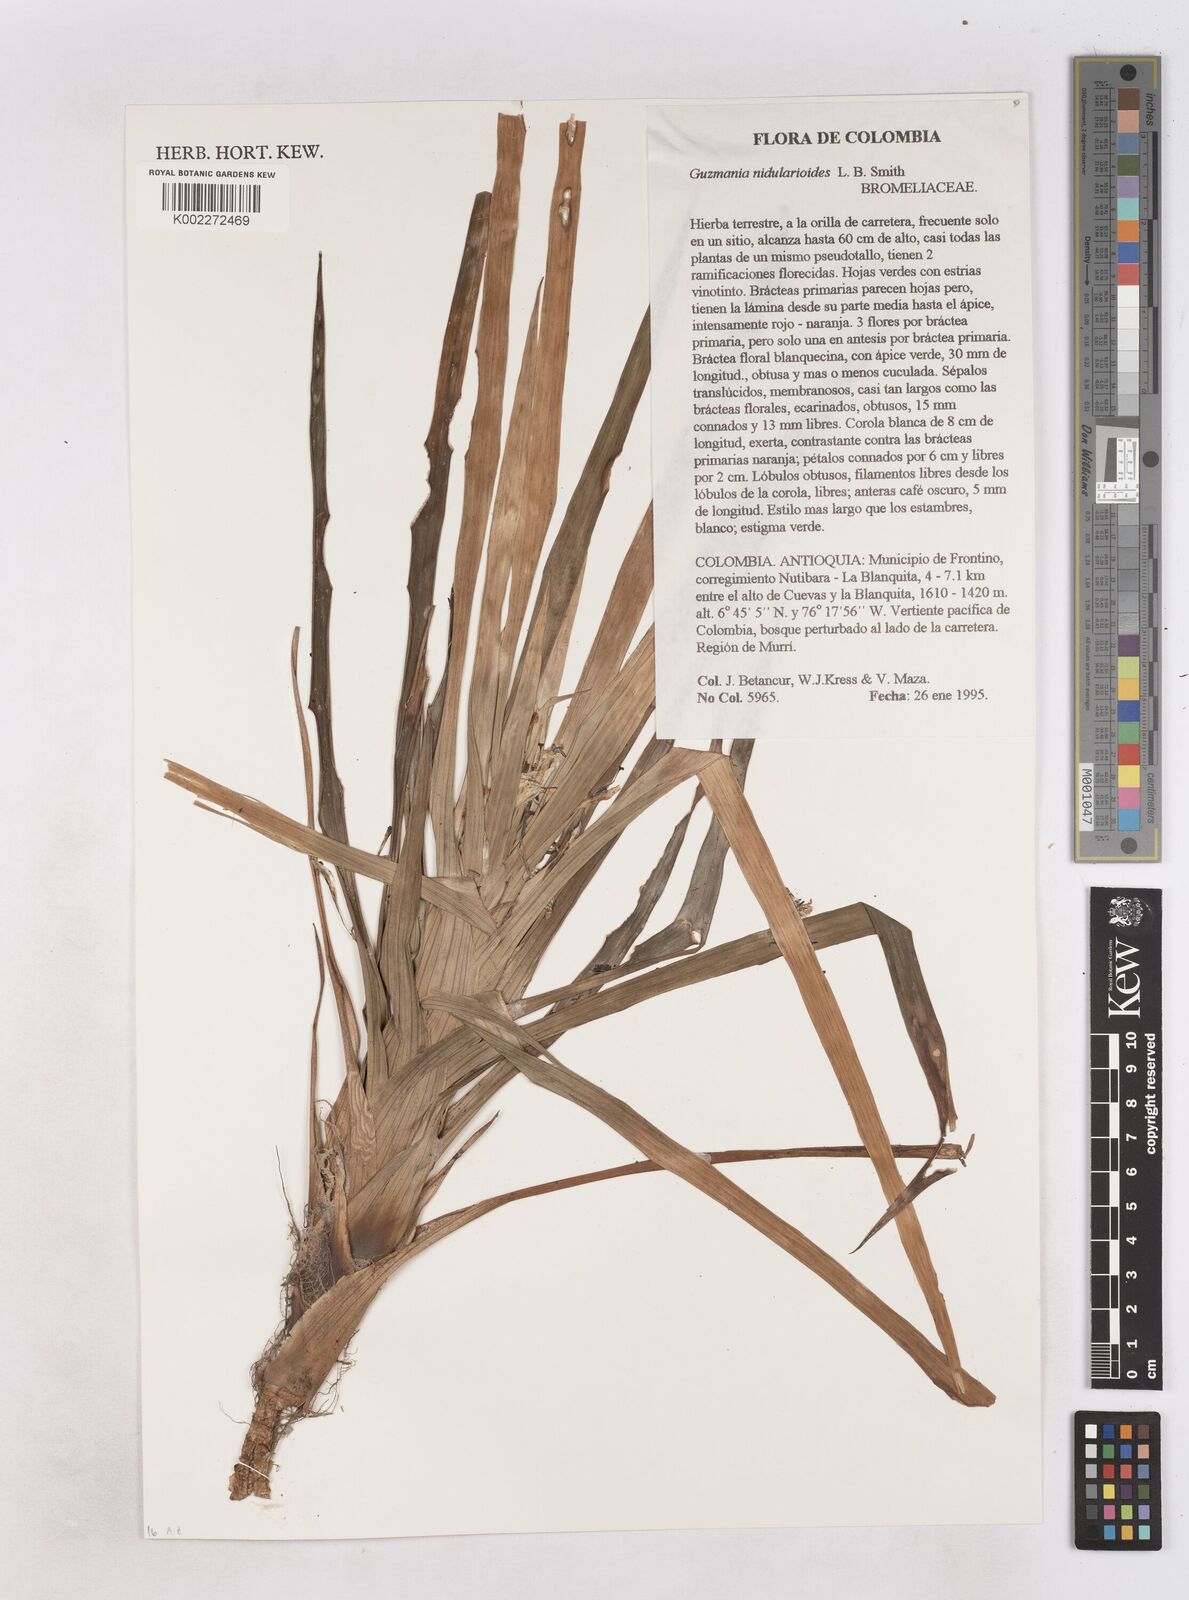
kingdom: Plantae
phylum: Tracheophyta
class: Liliopsida
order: Poales
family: Bromeliaceae
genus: Guzmania
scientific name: Guzmania nidularioides
